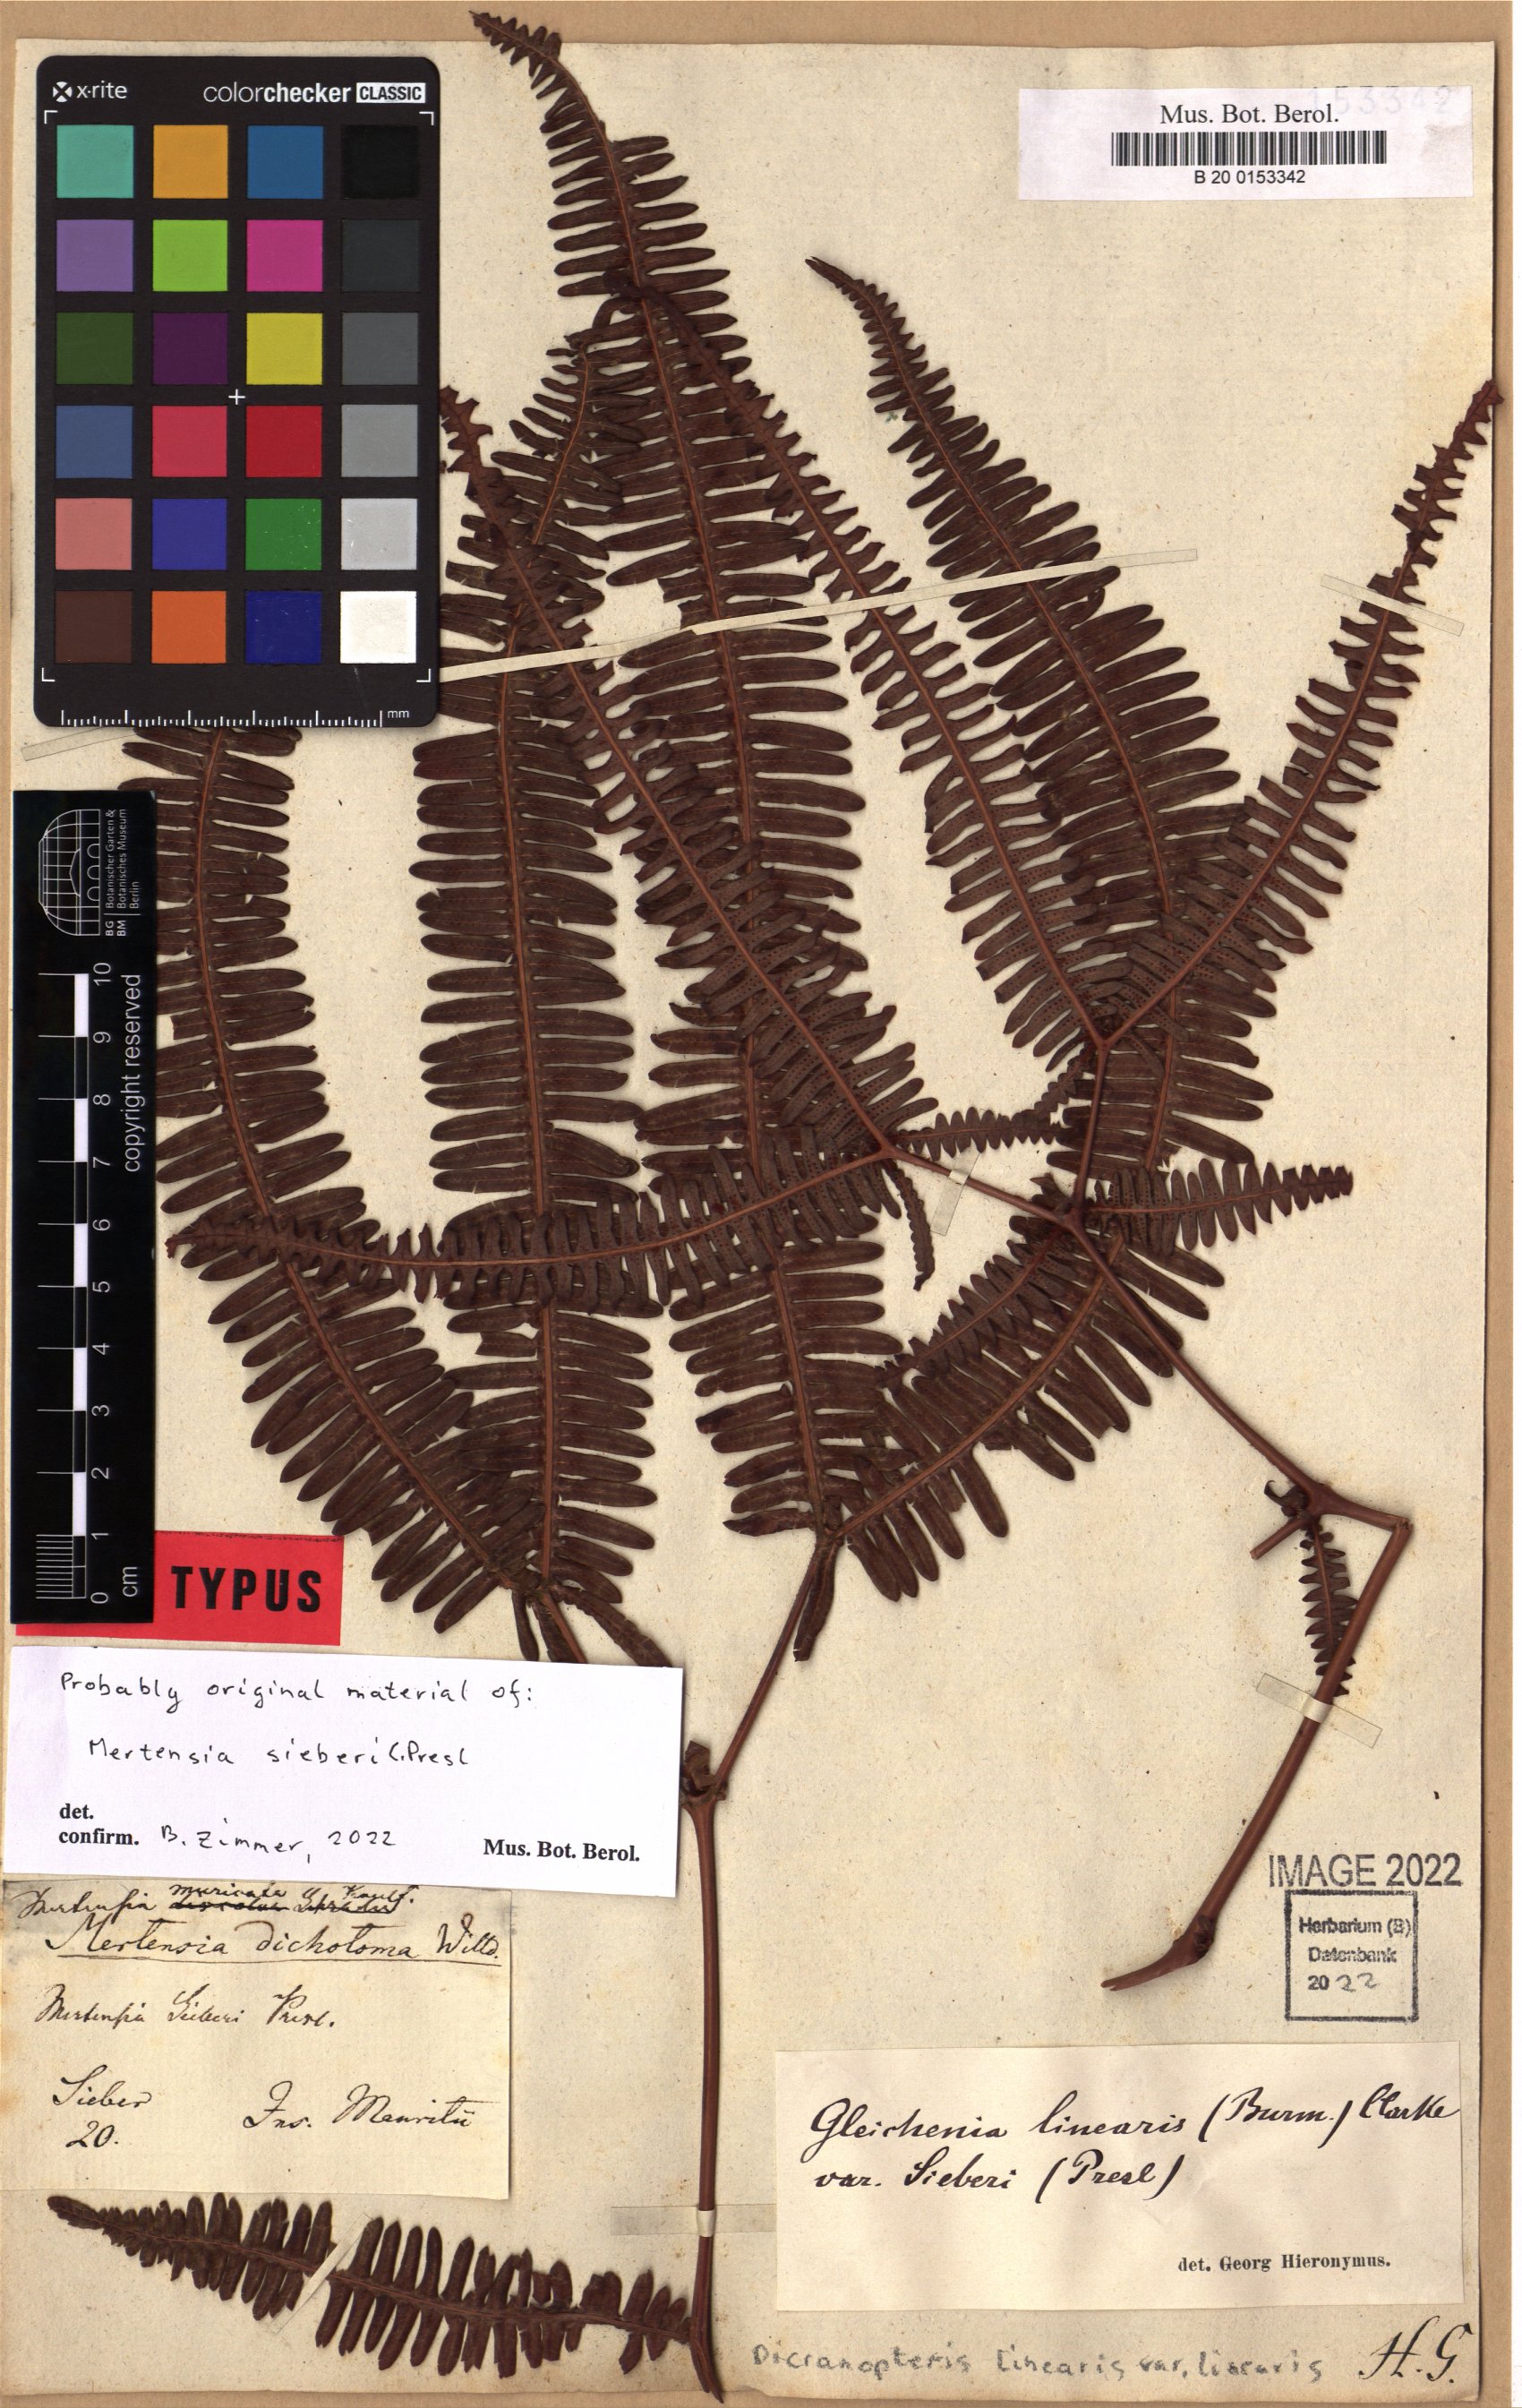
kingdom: Plantae
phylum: Tracheophyta
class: Polypodiopsida
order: Gleicheniales
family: Gleicheniaceae
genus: Dicranopteris
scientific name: Dicranopteris linearis
